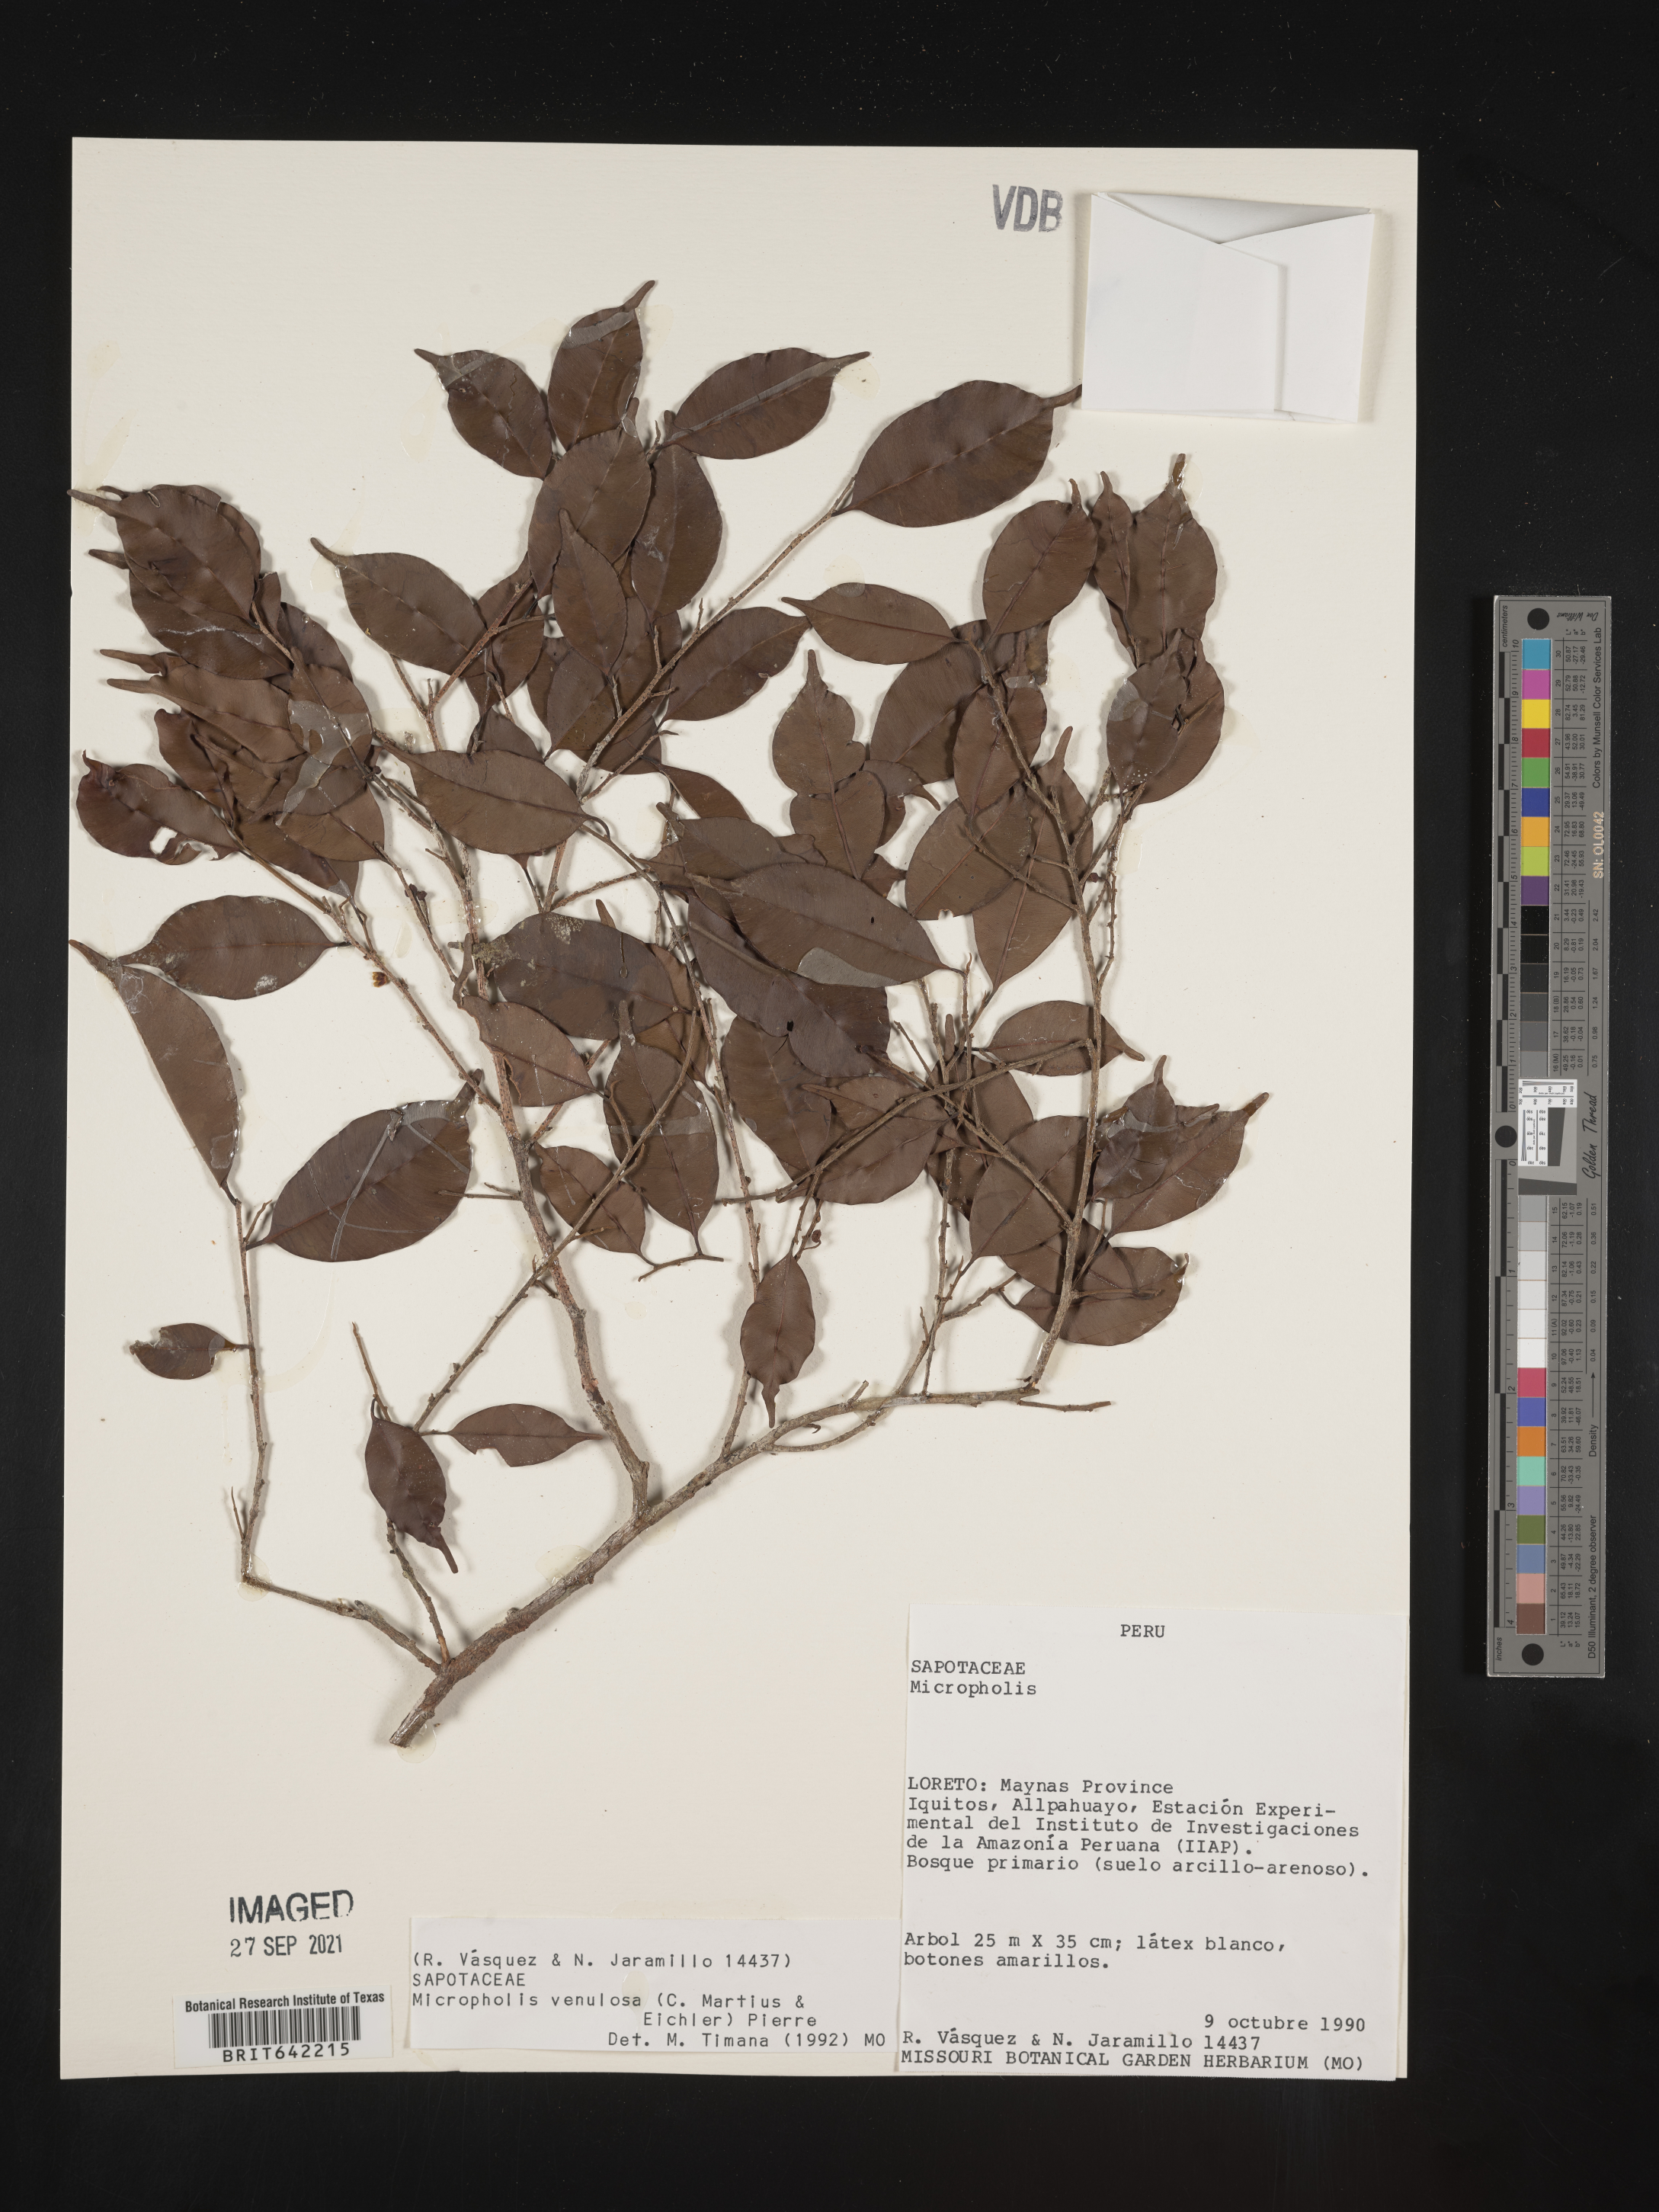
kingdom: Plantae
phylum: Tracheophyta
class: Magnoliopsida
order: Ericales
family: Sapotaceae
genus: Micropholis
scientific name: Micropholis
